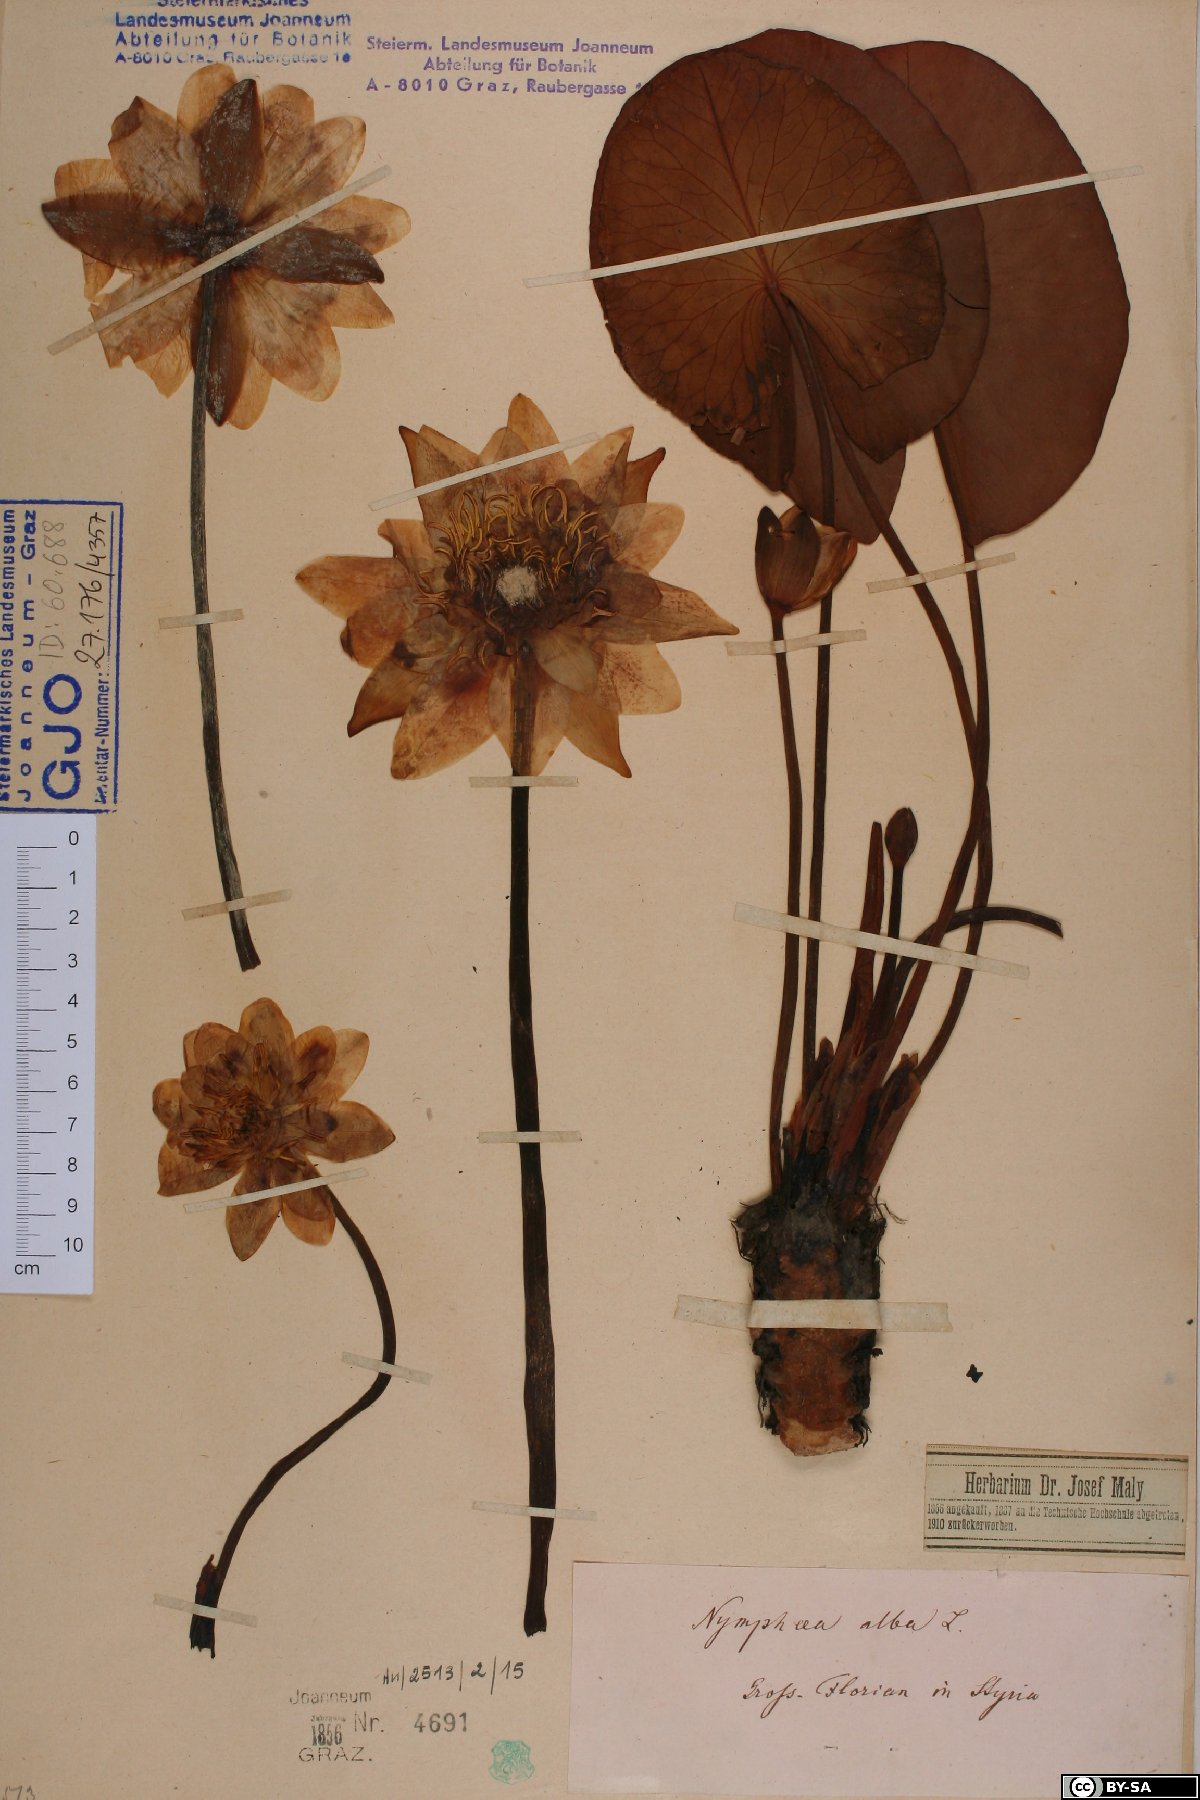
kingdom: Plantae
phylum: Tracheophyta
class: Magnoliopsida
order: Nymphaeales
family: Nymphaeaceae
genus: Nymphaea
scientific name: Nymphaea alba
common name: White water-lily
